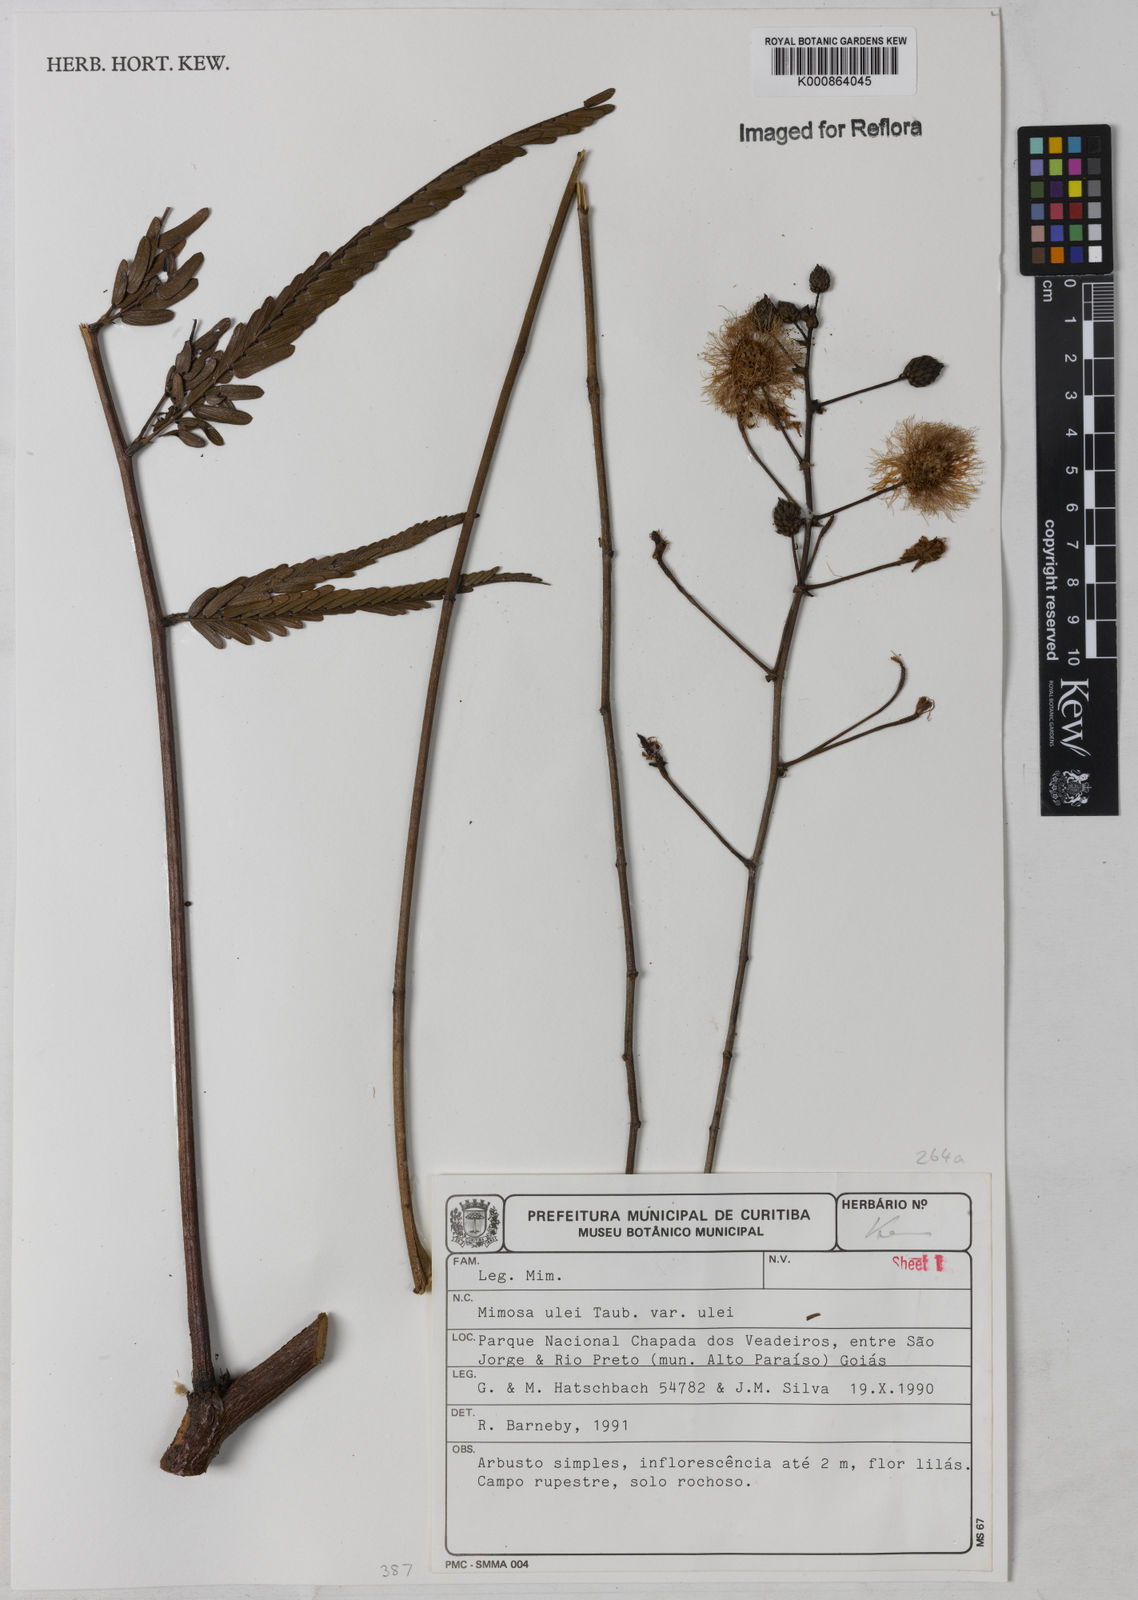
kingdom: Plantae
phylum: Tracheophyta
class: Magnoliopsida
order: Fabales
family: Fabaceae
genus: Mimosa
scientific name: Mimosa ulei
